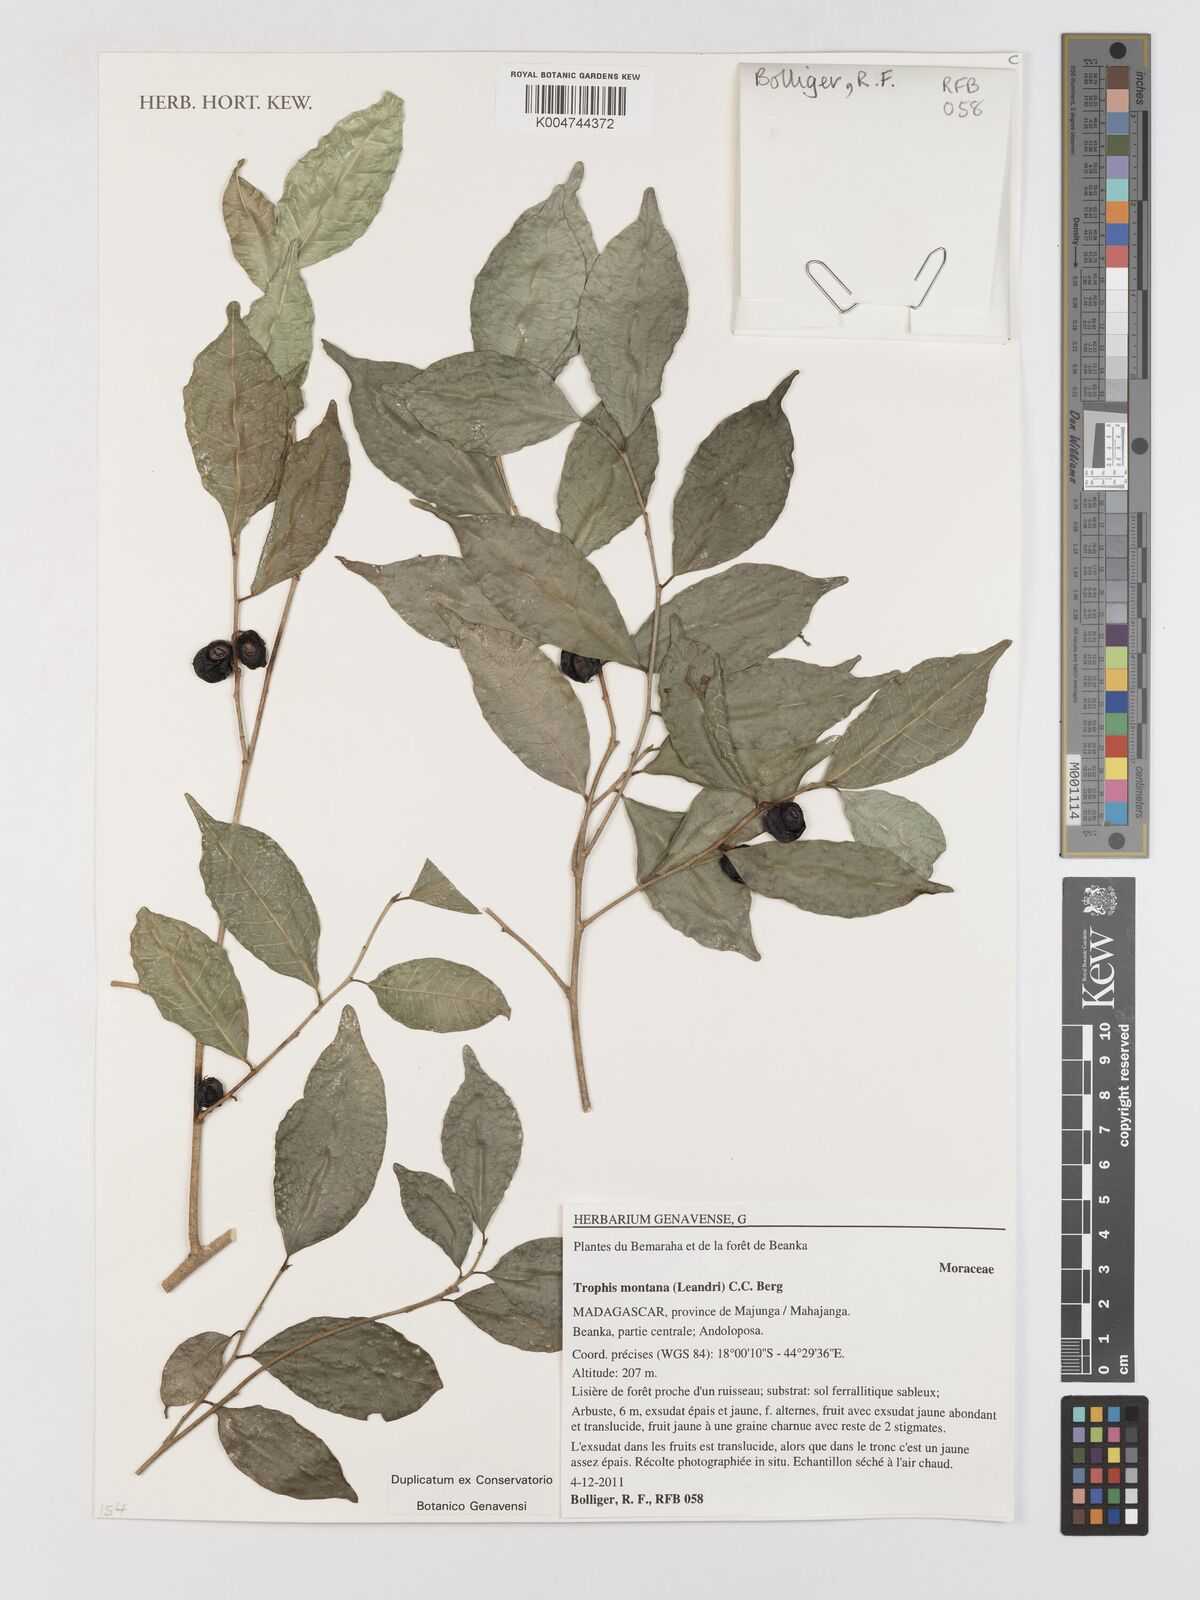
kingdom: Plantae
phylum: Tracheophyta
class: Magnoliopsida
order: Rosales
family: Moraceae
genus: Maillardia
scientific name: Maillardia montana
